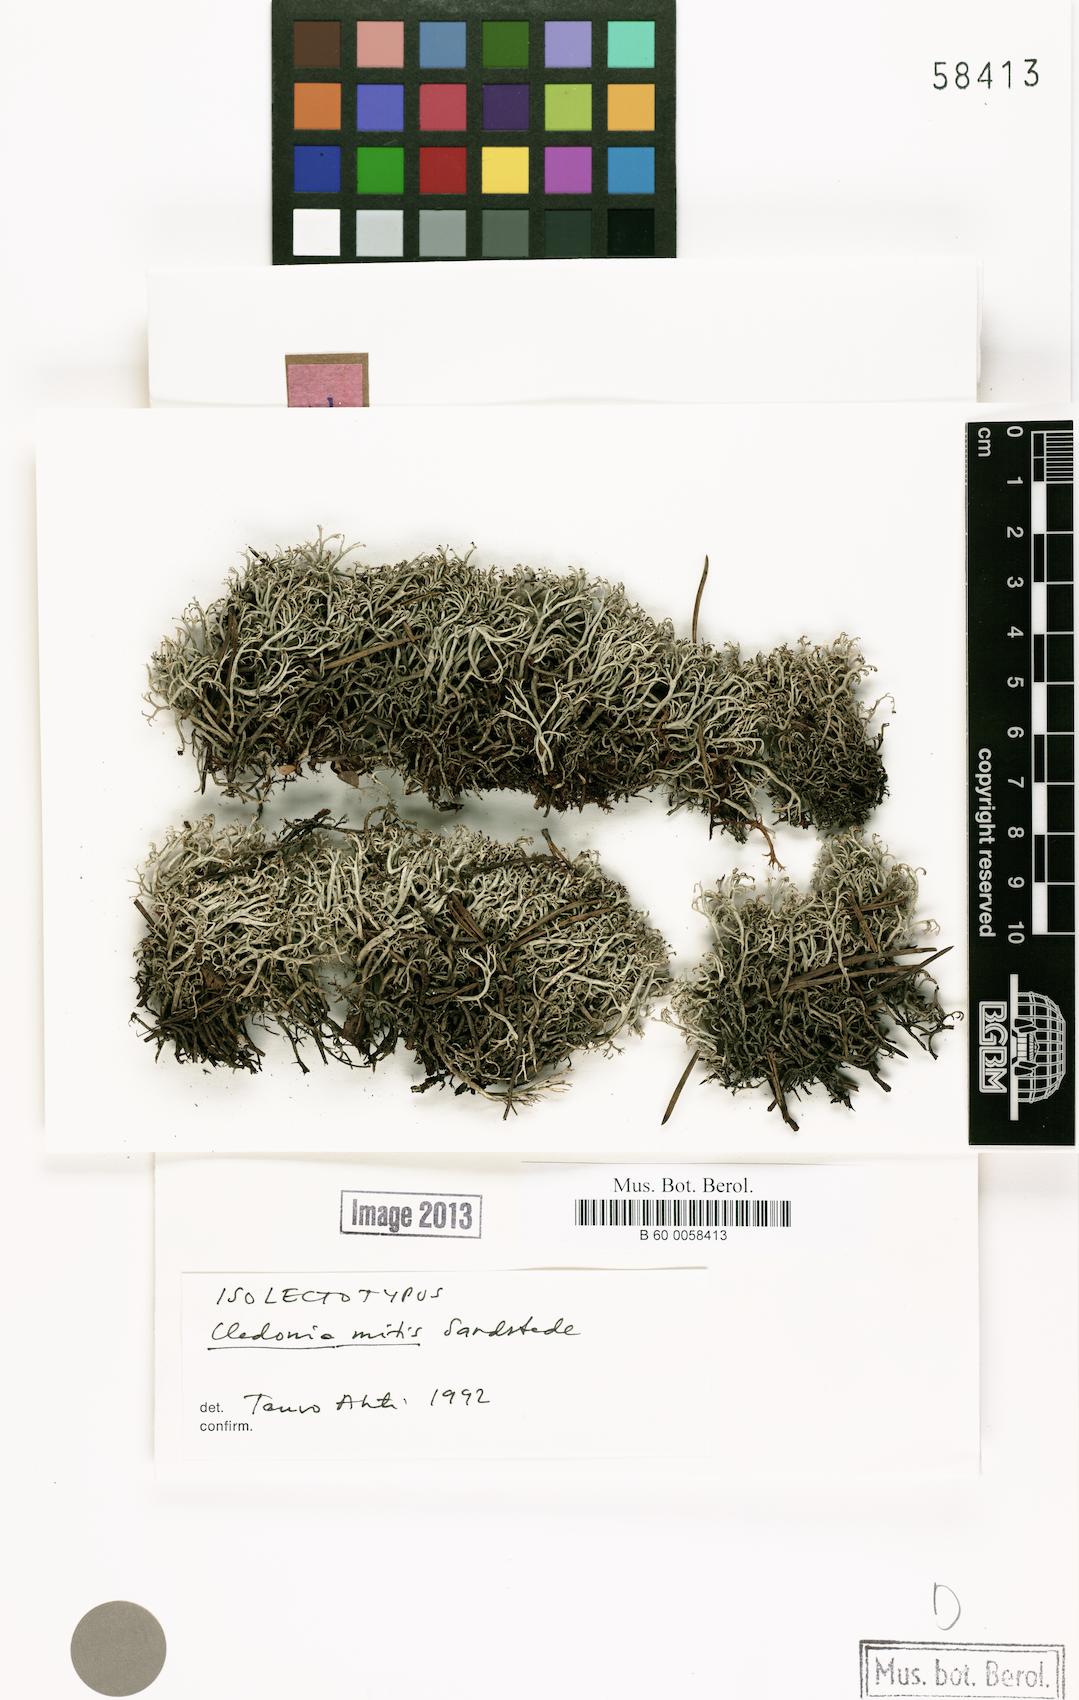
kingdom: Fungi
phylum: Ascomycota
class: Lecanoromycetes
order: Lecanorales
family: Cladoniaceae
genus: Cladonia
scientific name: Cladonia mitis
